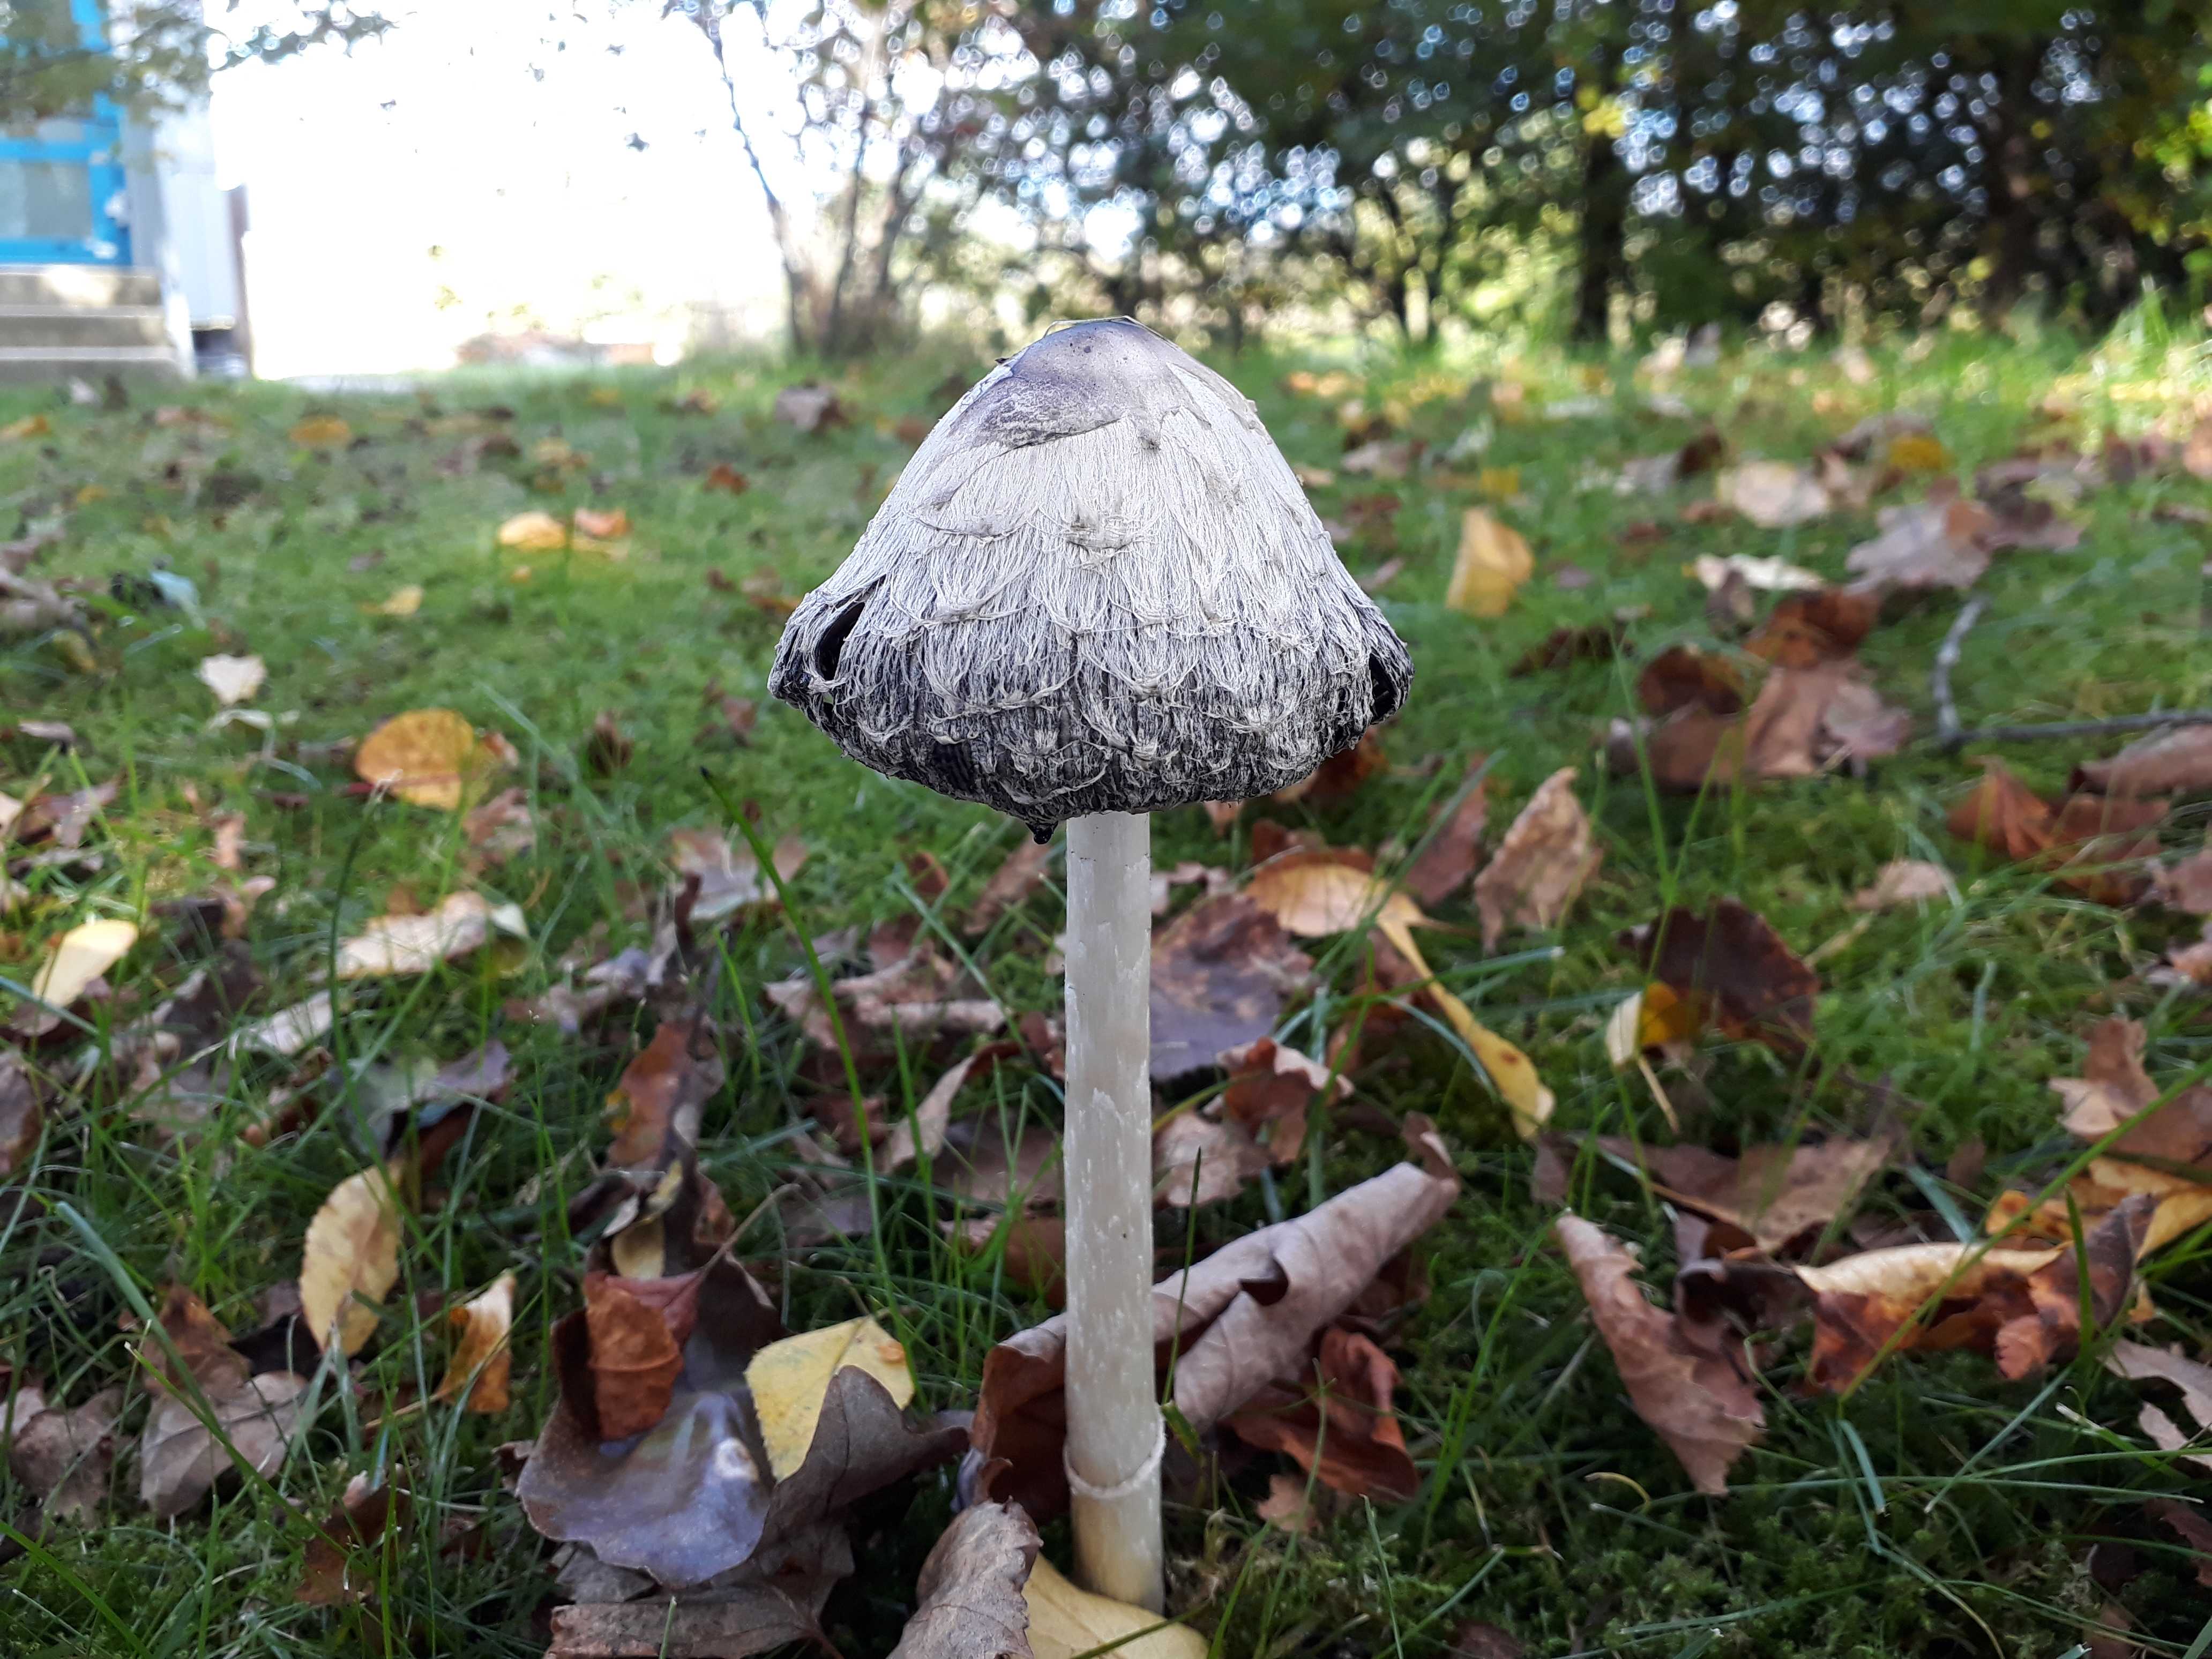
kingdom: Fungi
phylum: Basidiomycota
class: Agaricomycetes
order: Agaricales
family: Agaricaceae
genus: Coprinus
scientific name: Coprinus comatus
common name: stor parykhat
